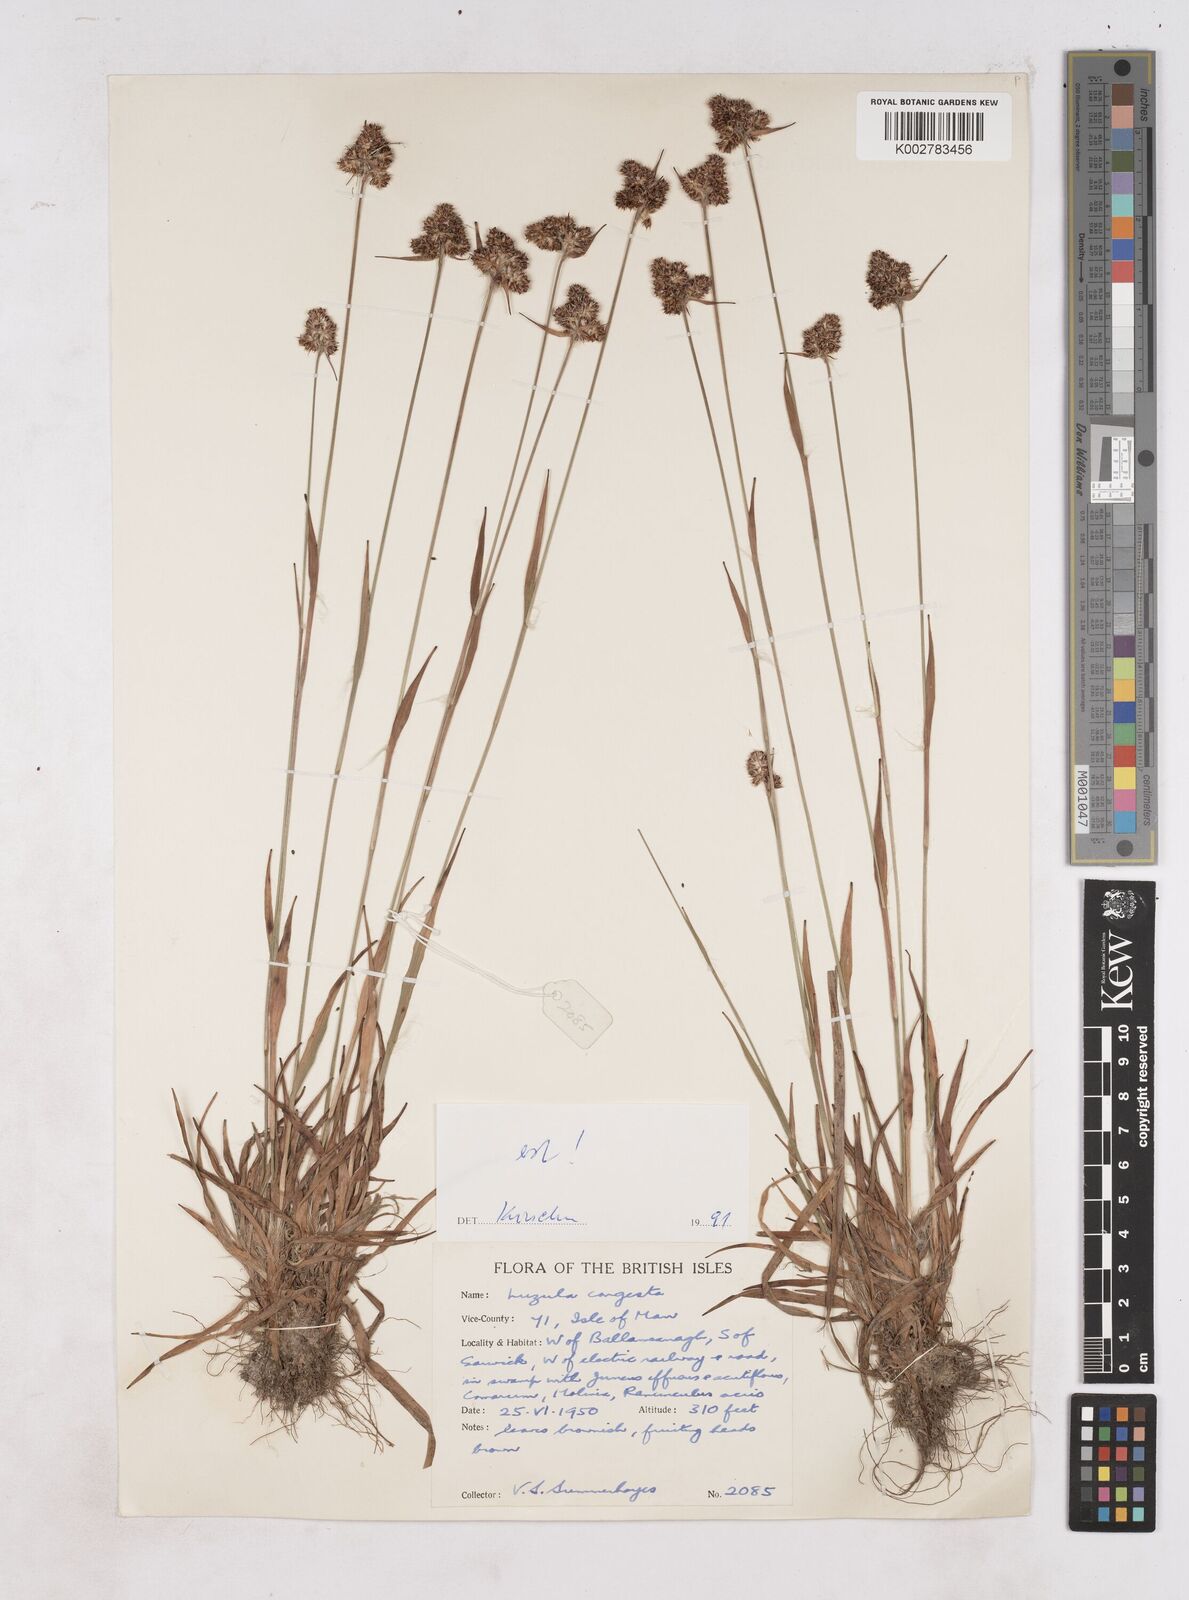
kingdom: Plantae
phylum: Tracheophyta
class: Liliopsida
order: Poales
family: Juncaceae
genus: Luzula
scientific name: Luzula campestris
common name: Field wood-rush
